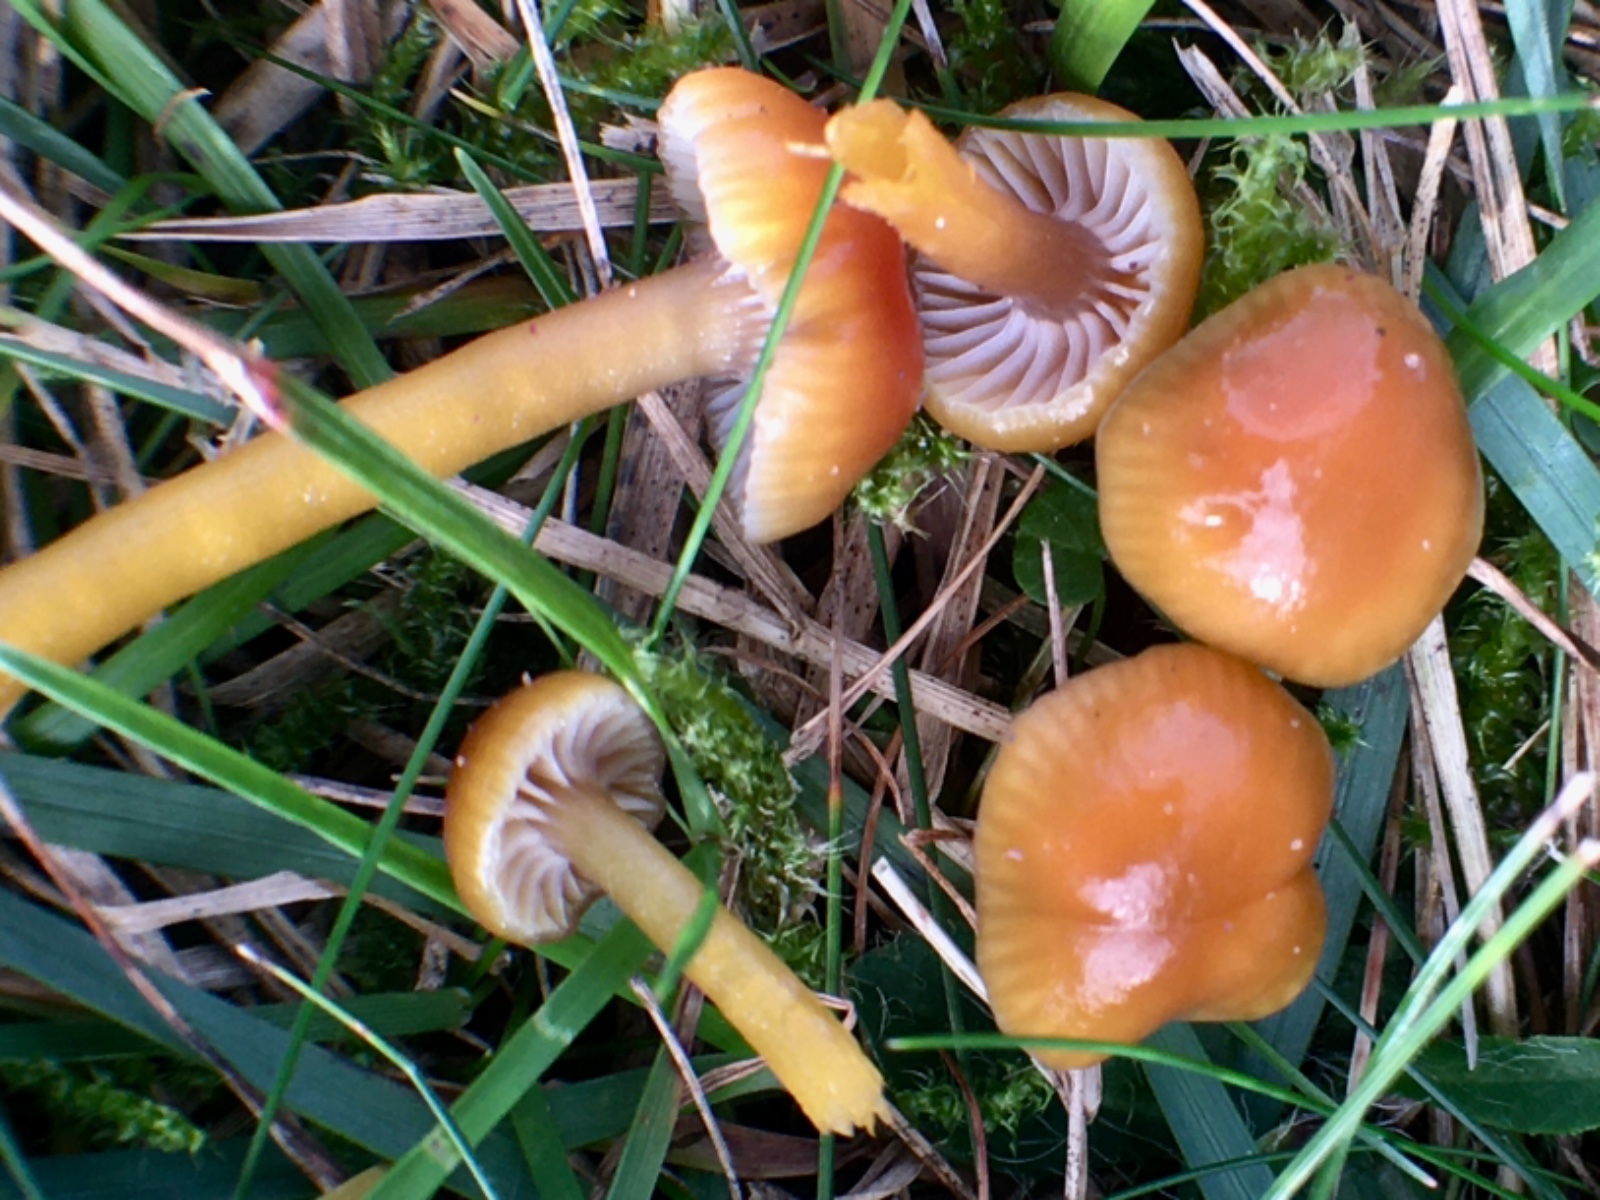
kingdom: Fungi
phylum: Basidiomycota
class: Agaricomycetes
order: Agaricales
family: Hygrophoraceae
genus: Gliophorus
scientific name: Gliophorus laetus
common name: brusk-vokshat
